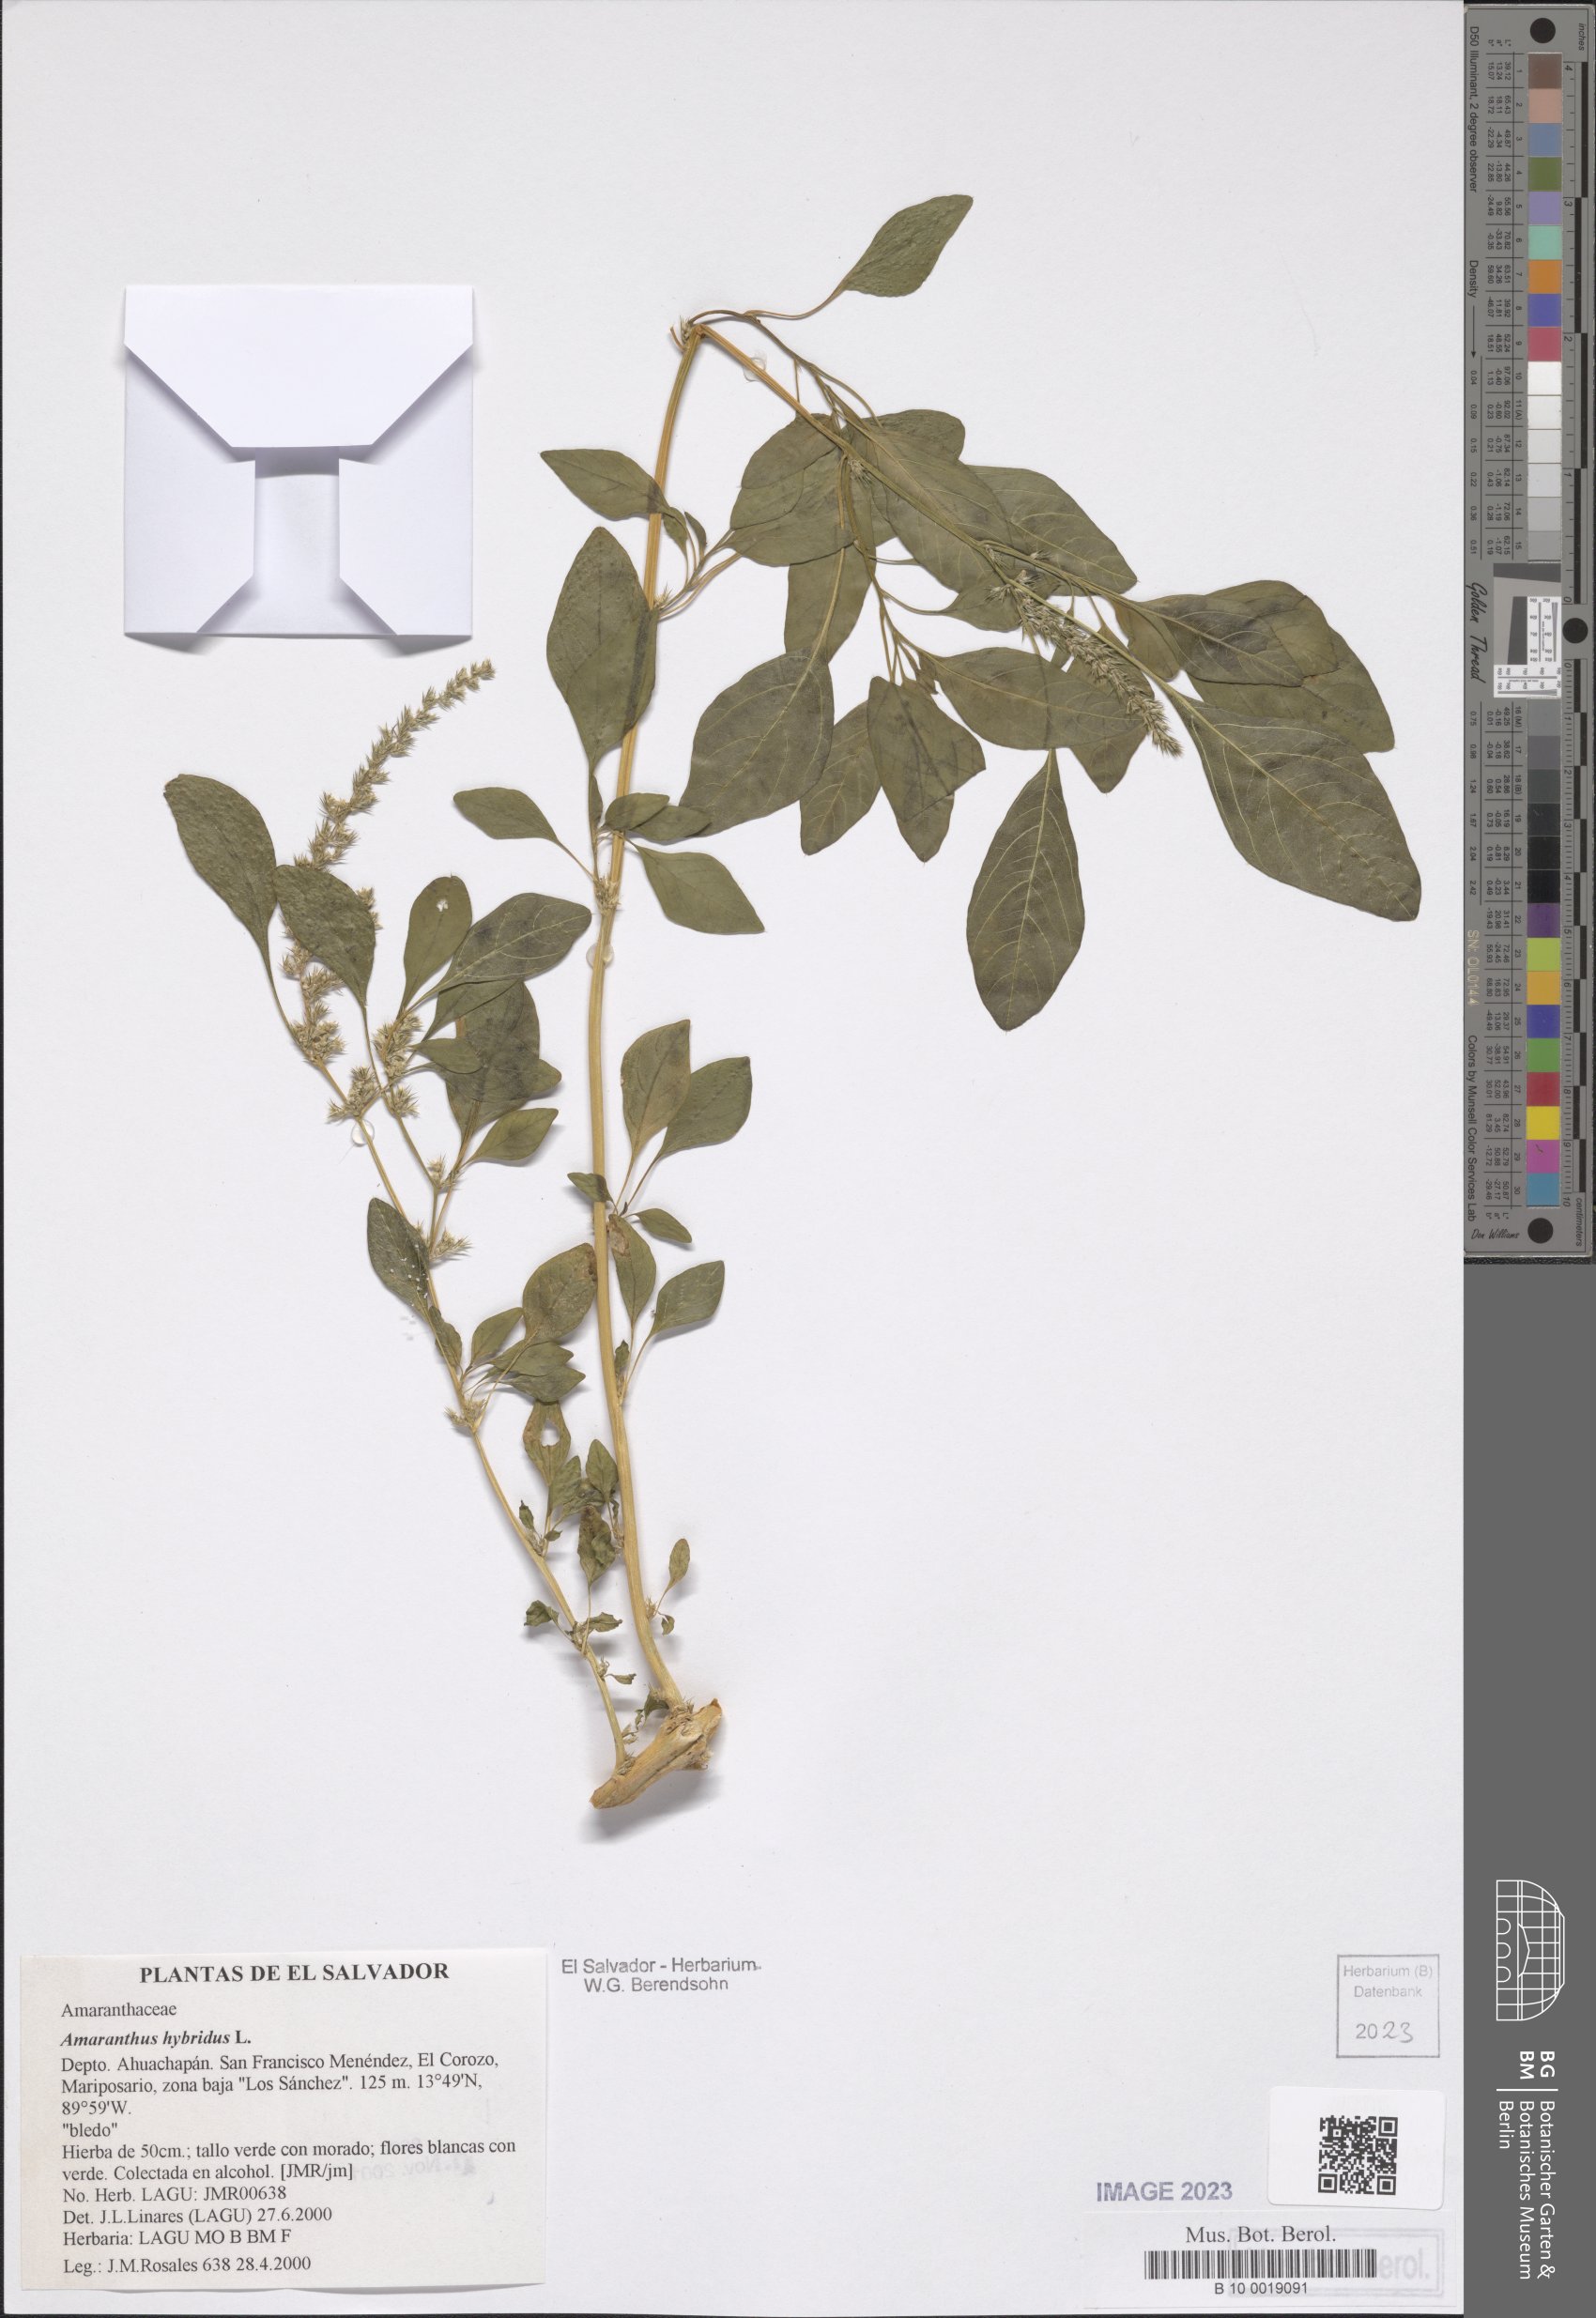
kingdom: Plantae
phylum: Tracheophyta
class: Magnoliopsida
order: Caryophyllales
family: Amaranthaceae
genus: Amaranthus
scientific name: Amaranthus hybridus
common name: Green amaranth
